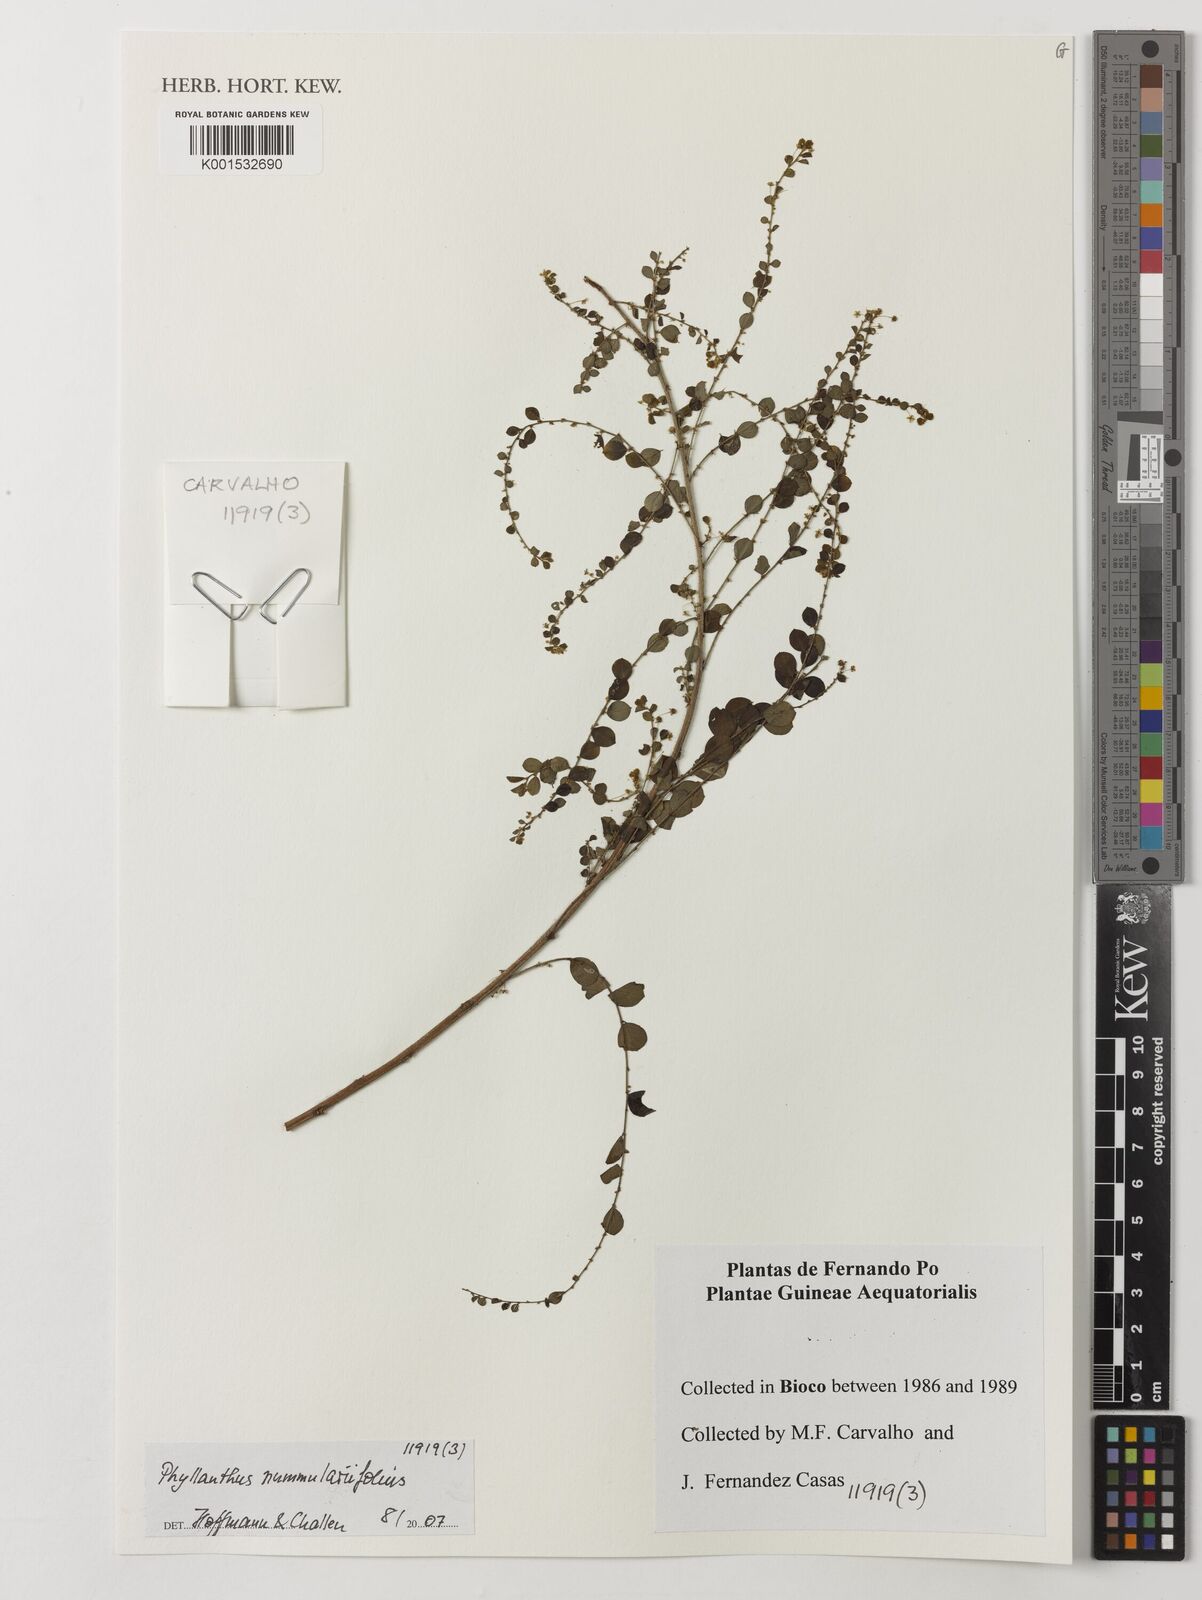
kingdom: Plantae
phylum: Tracheophyta
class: Magnoliopsida
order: Malpighiales
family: Phyllanthaceae
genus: Phyllanthus
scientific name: Phyllanthus nummulariifolius
